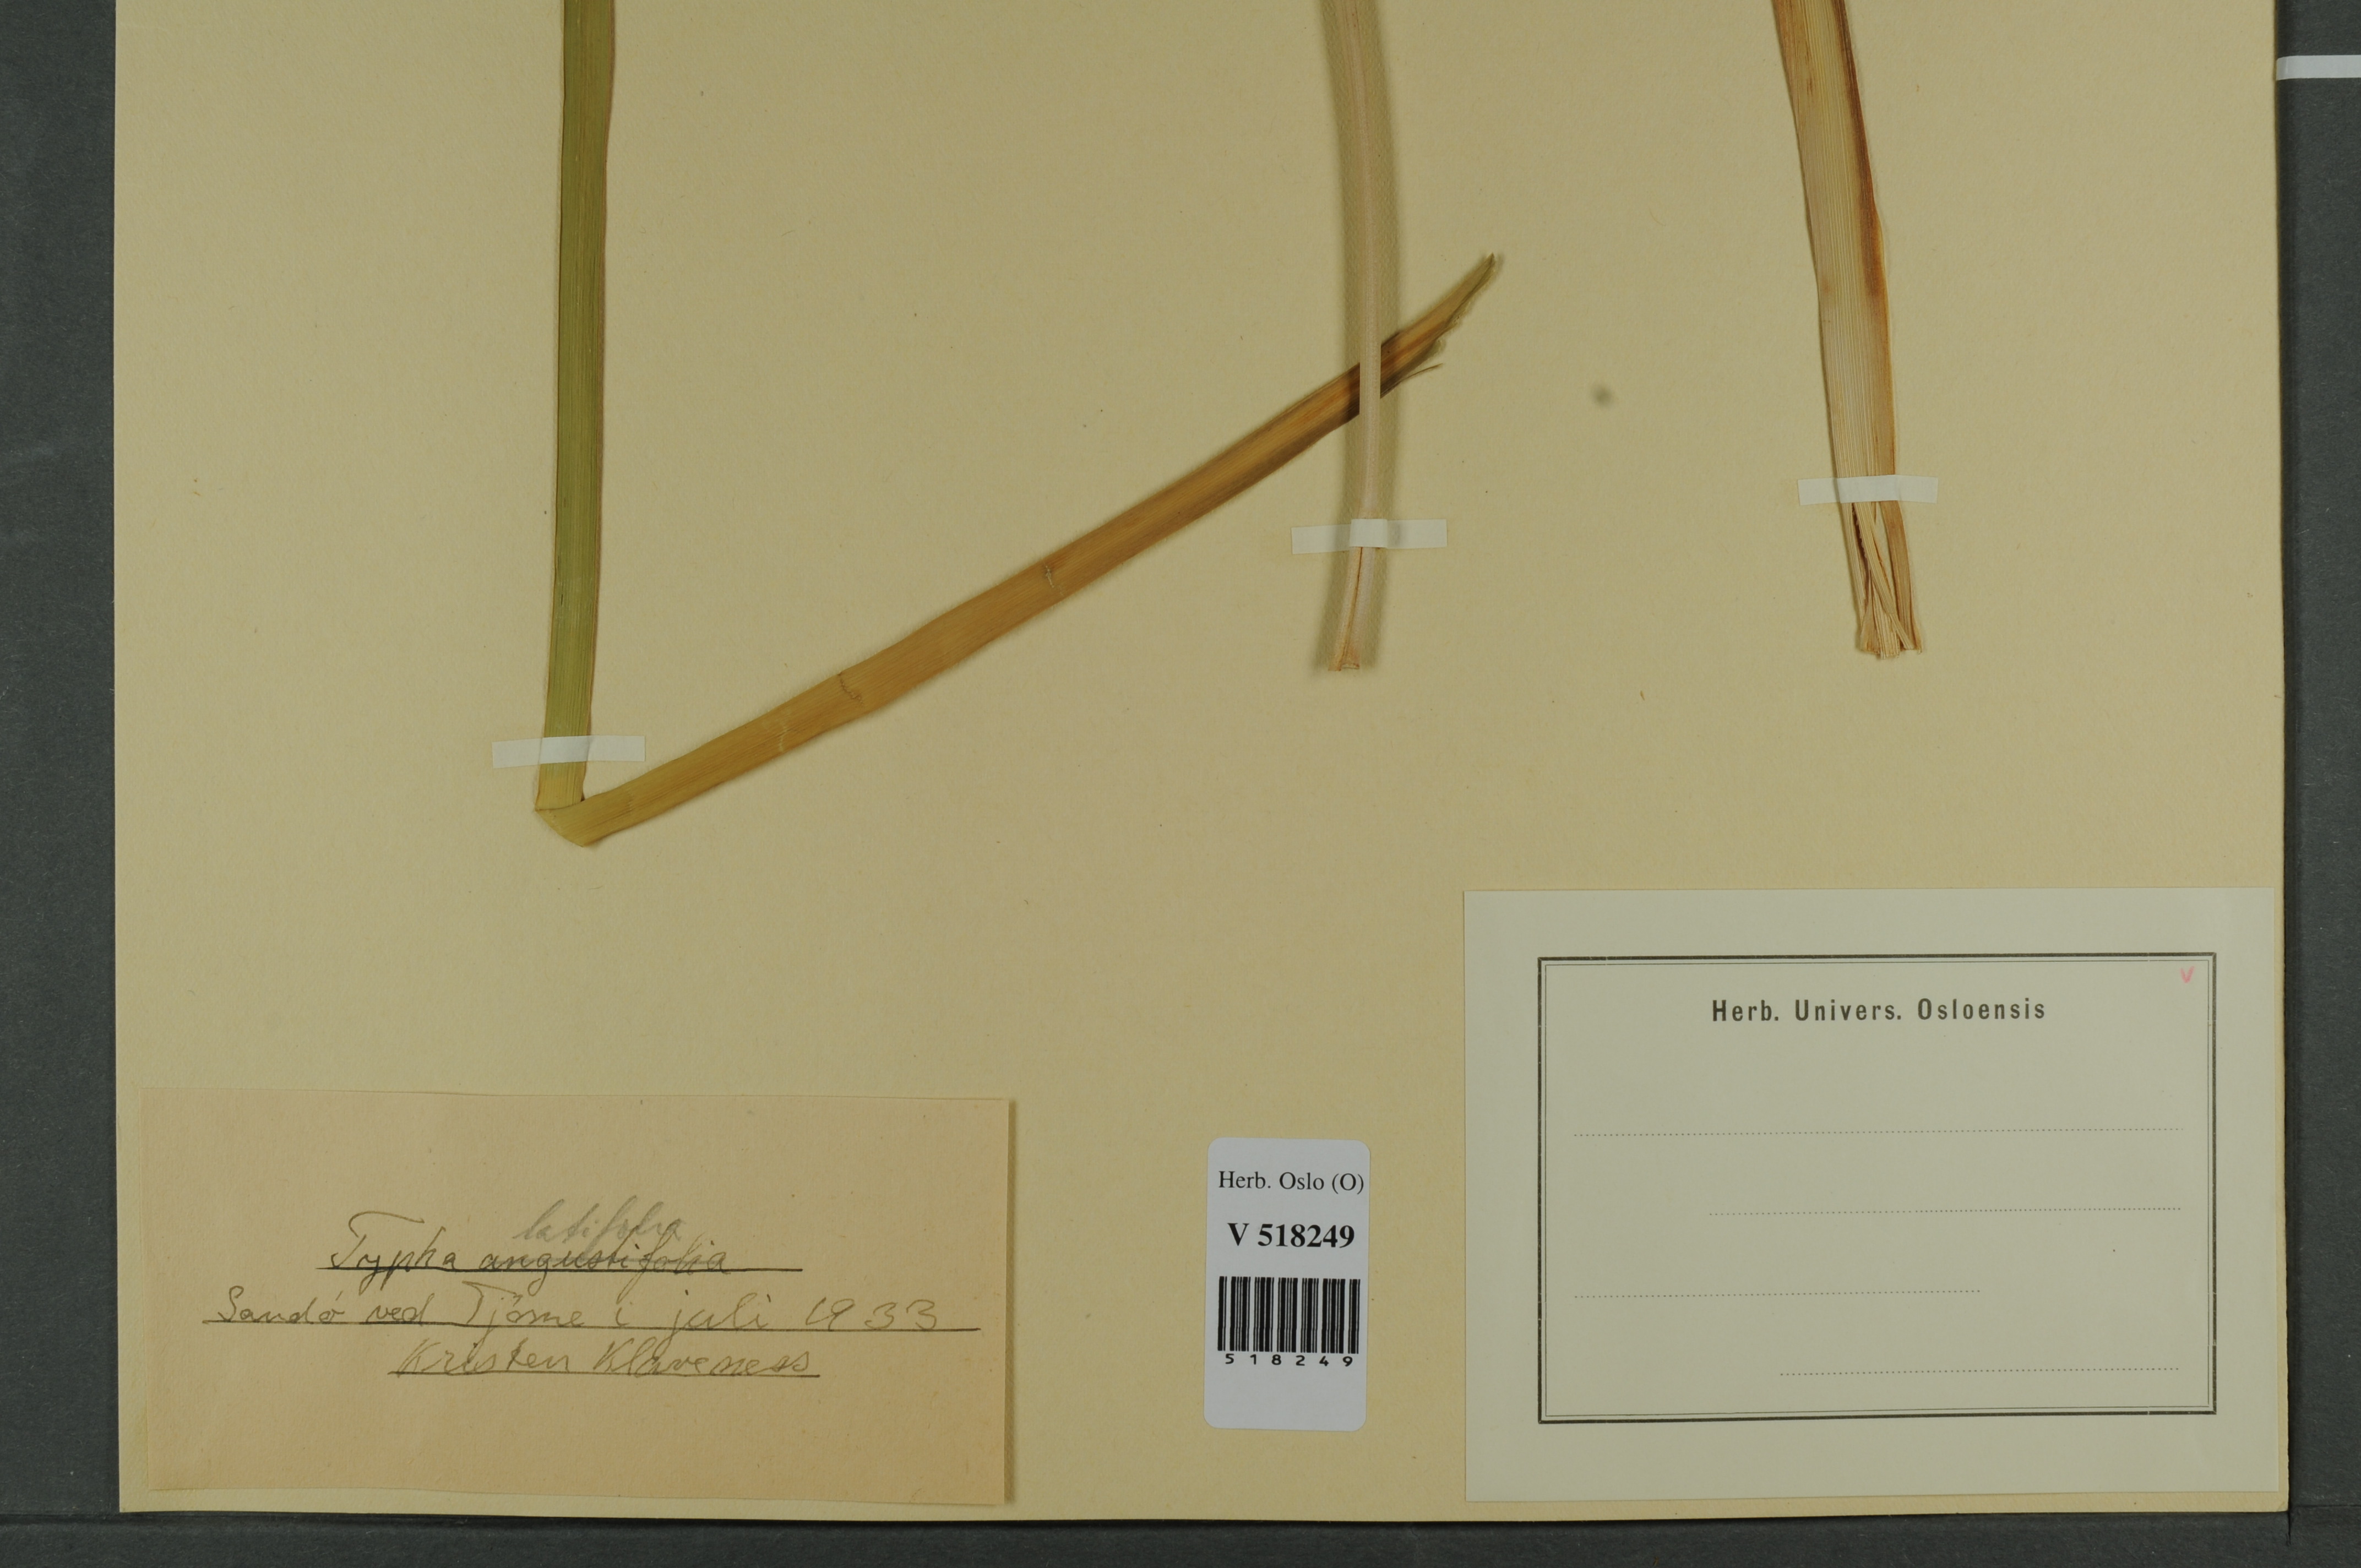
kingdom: Plantae
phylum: Tracheophyta
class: Liliopsida
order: Poales
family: Typhaceae
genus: Typha
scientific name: Typha latifolia
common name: Broadleaf cattail
